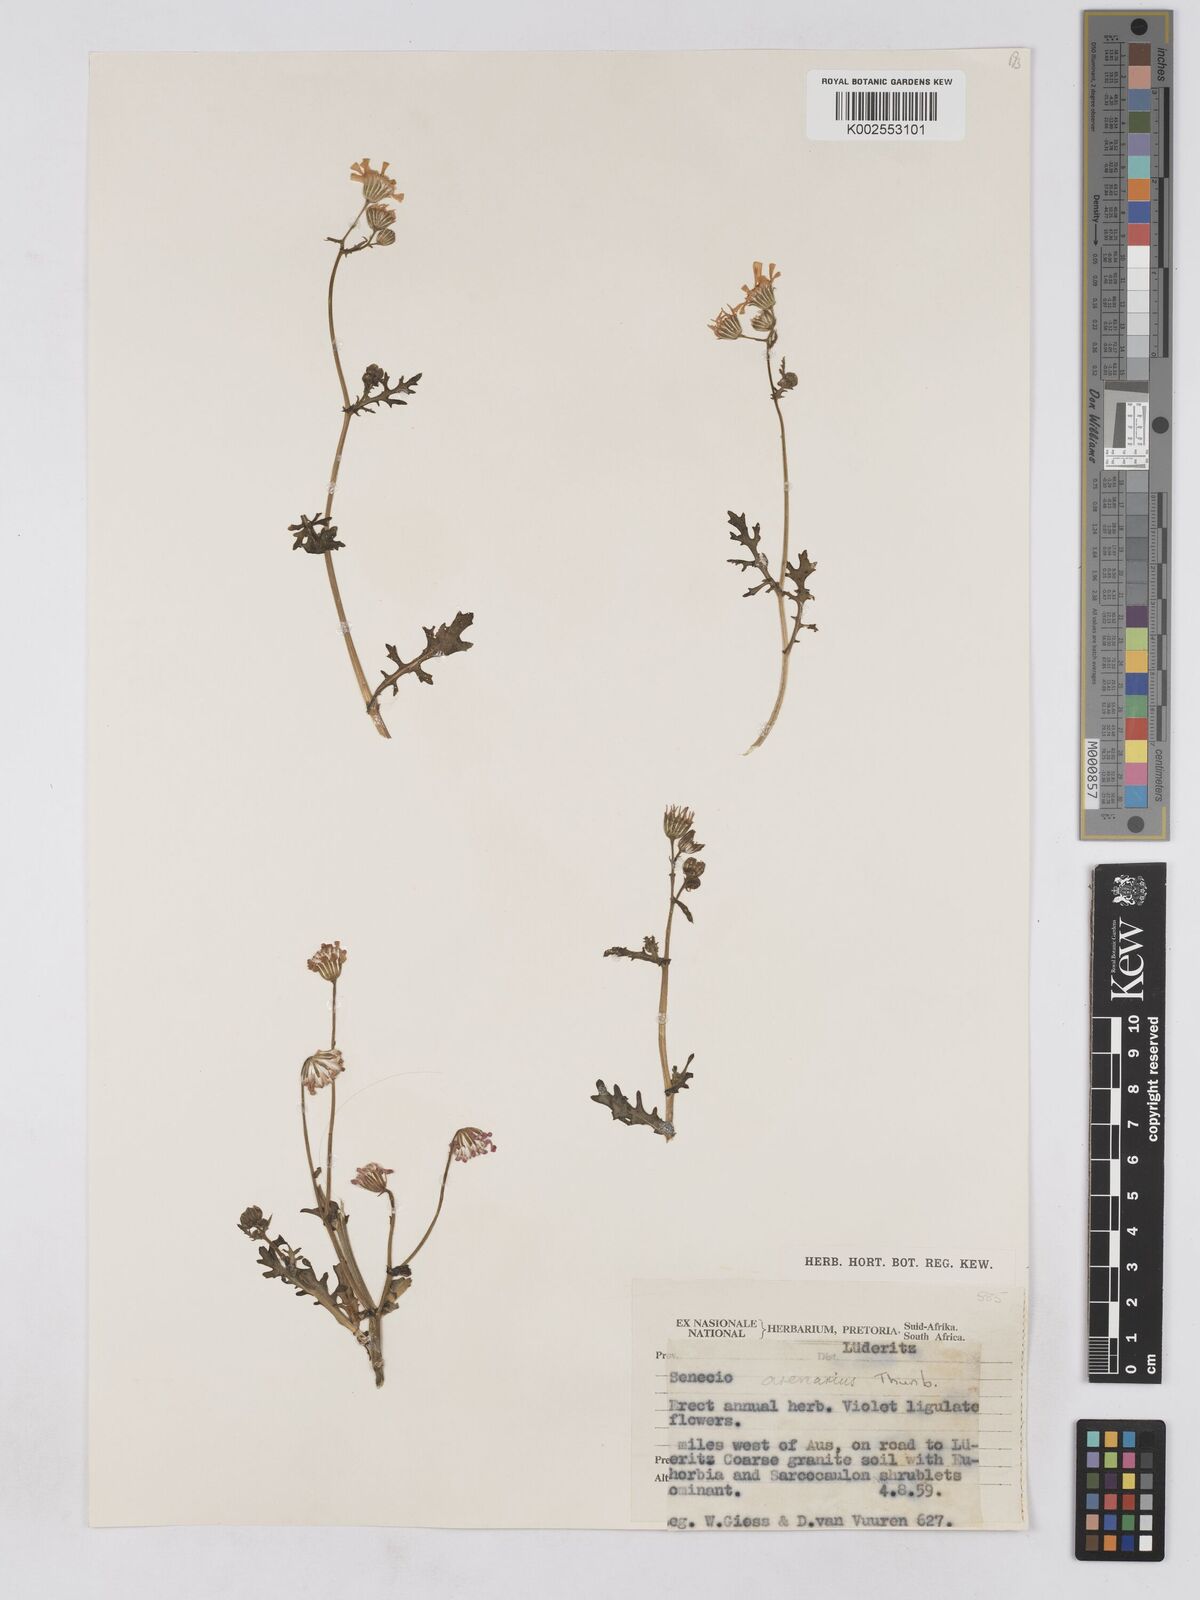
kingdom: Plantae
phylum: Tracheophyta
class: Magnoliopsida
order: Asterales
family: Asteraceae
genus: Senecio
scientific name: Senecio arenarius
